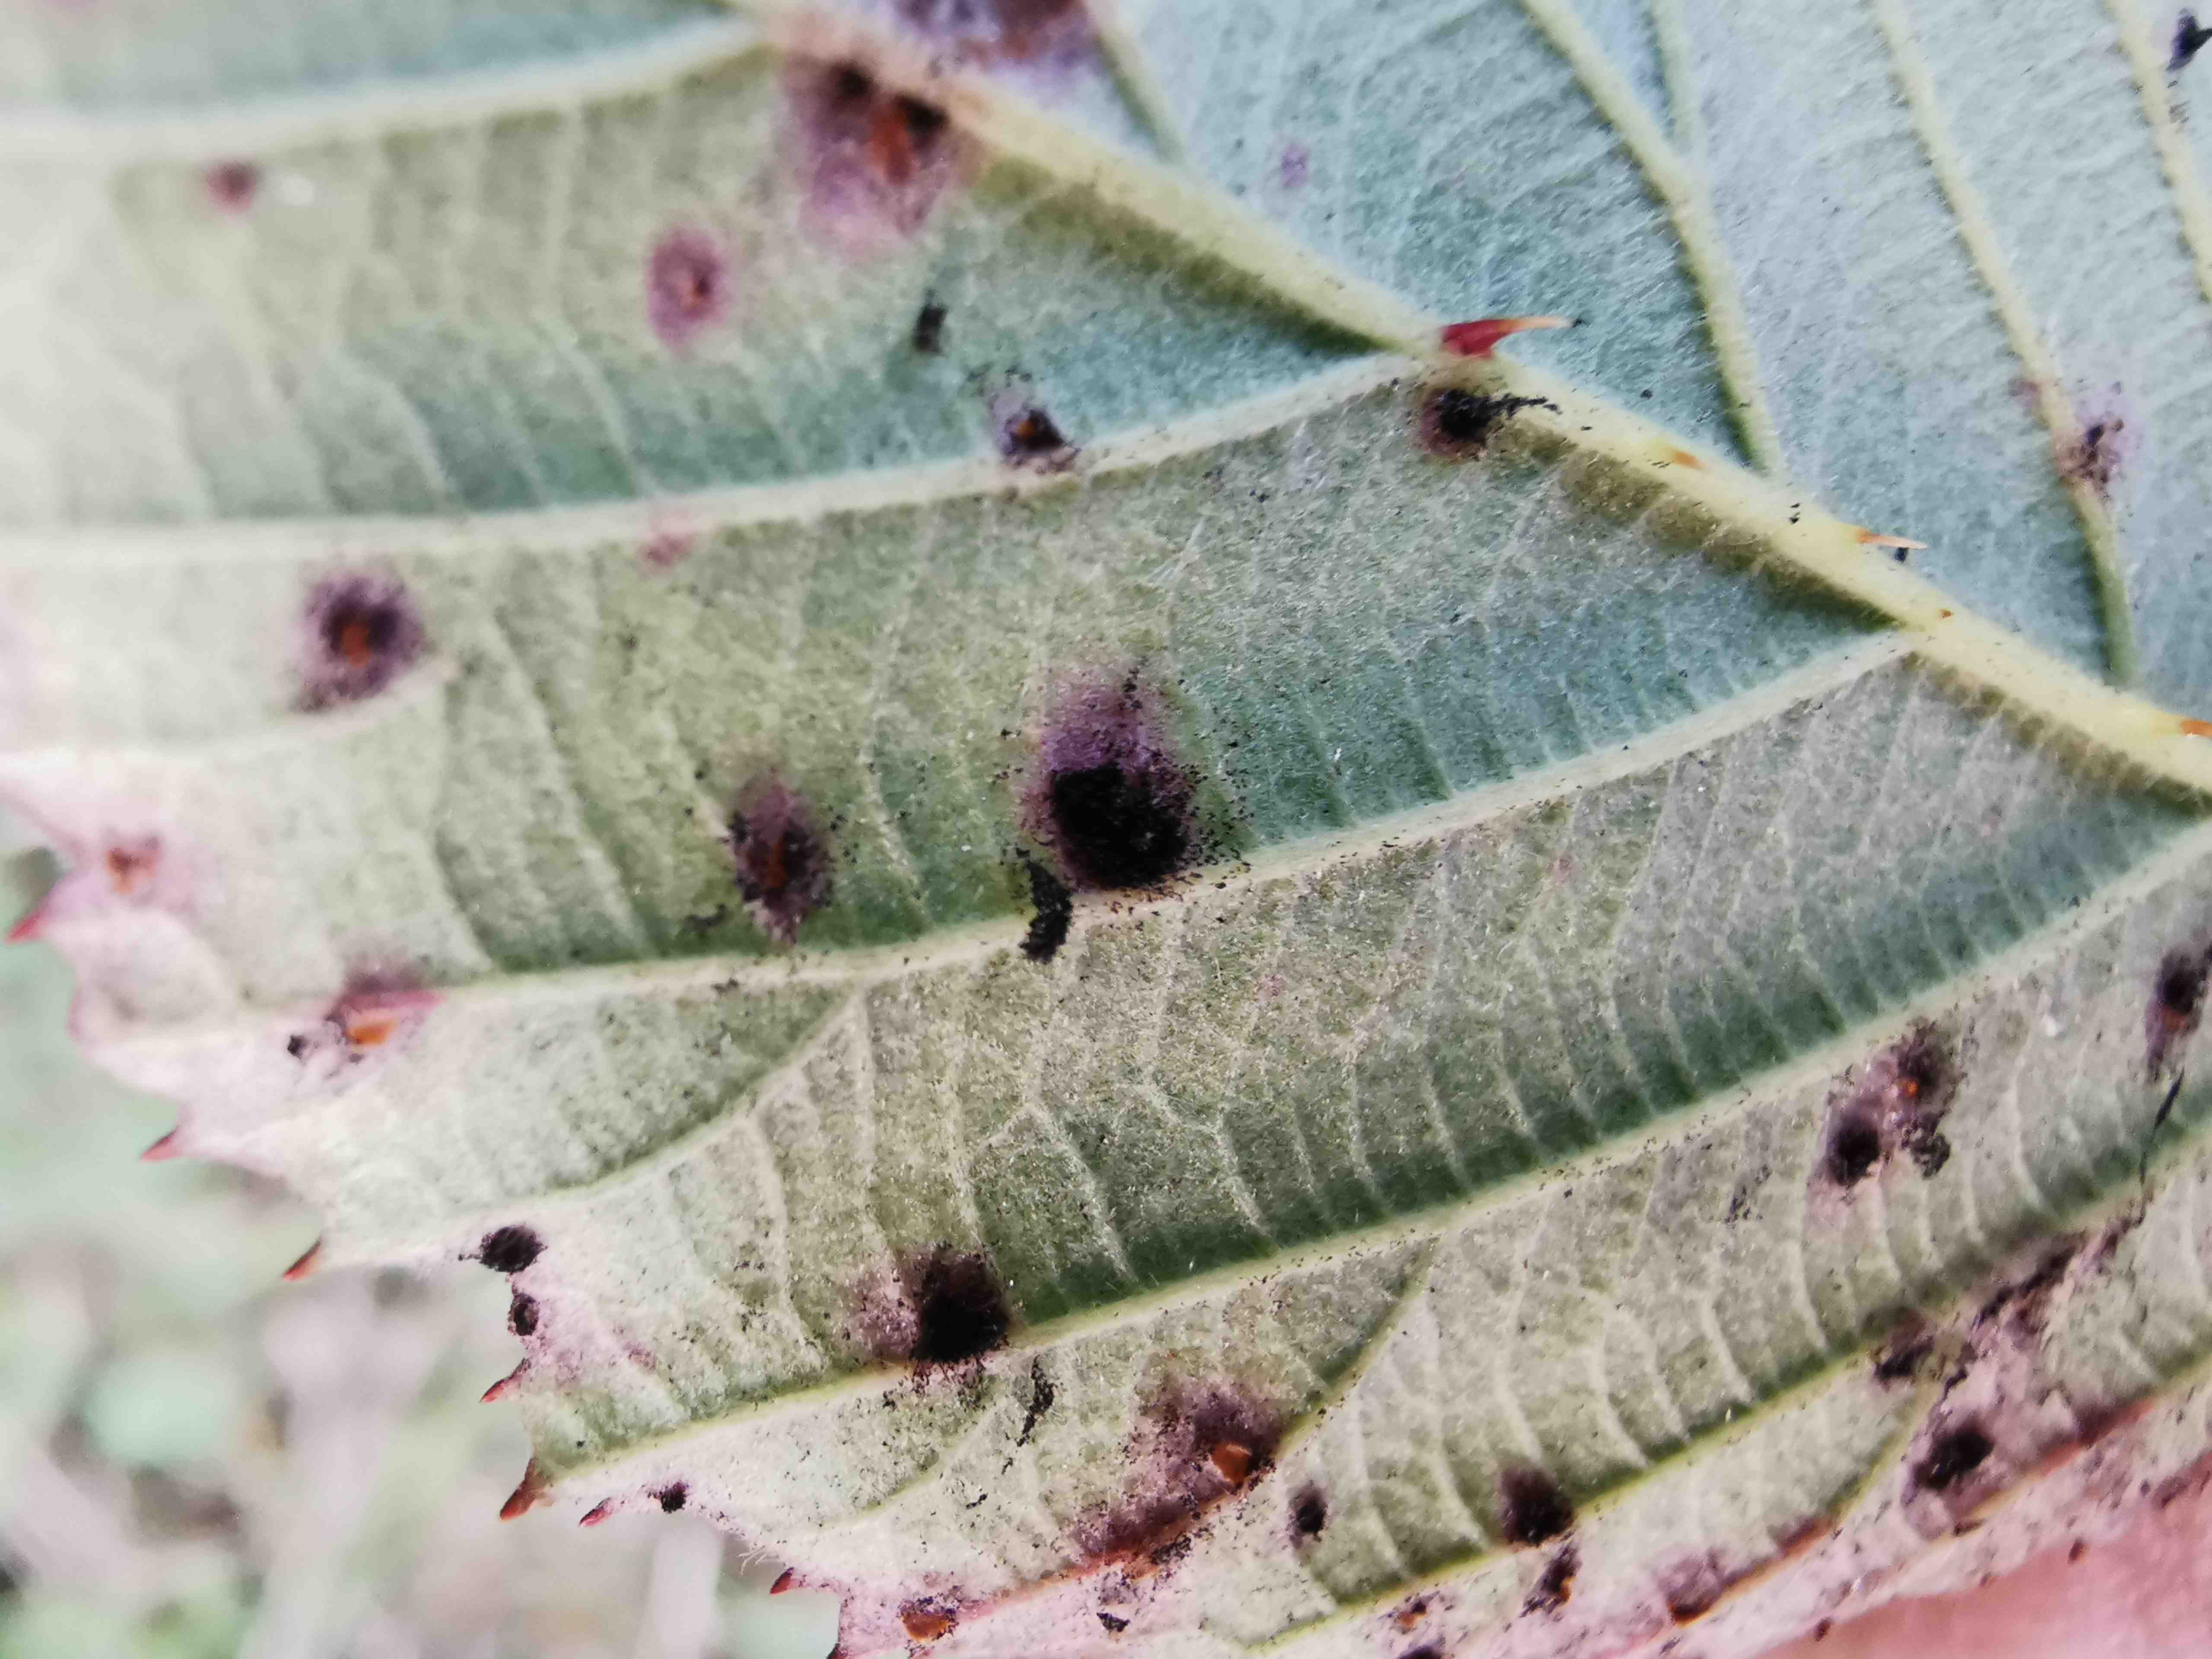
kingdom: Fungi
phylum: Basidiomycota
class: Pucciniomycetes
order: Pucciniales
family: Phragmidiaceae
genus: Phragmidium
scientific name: Phragmidium violaceum
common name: violet flercellerust
